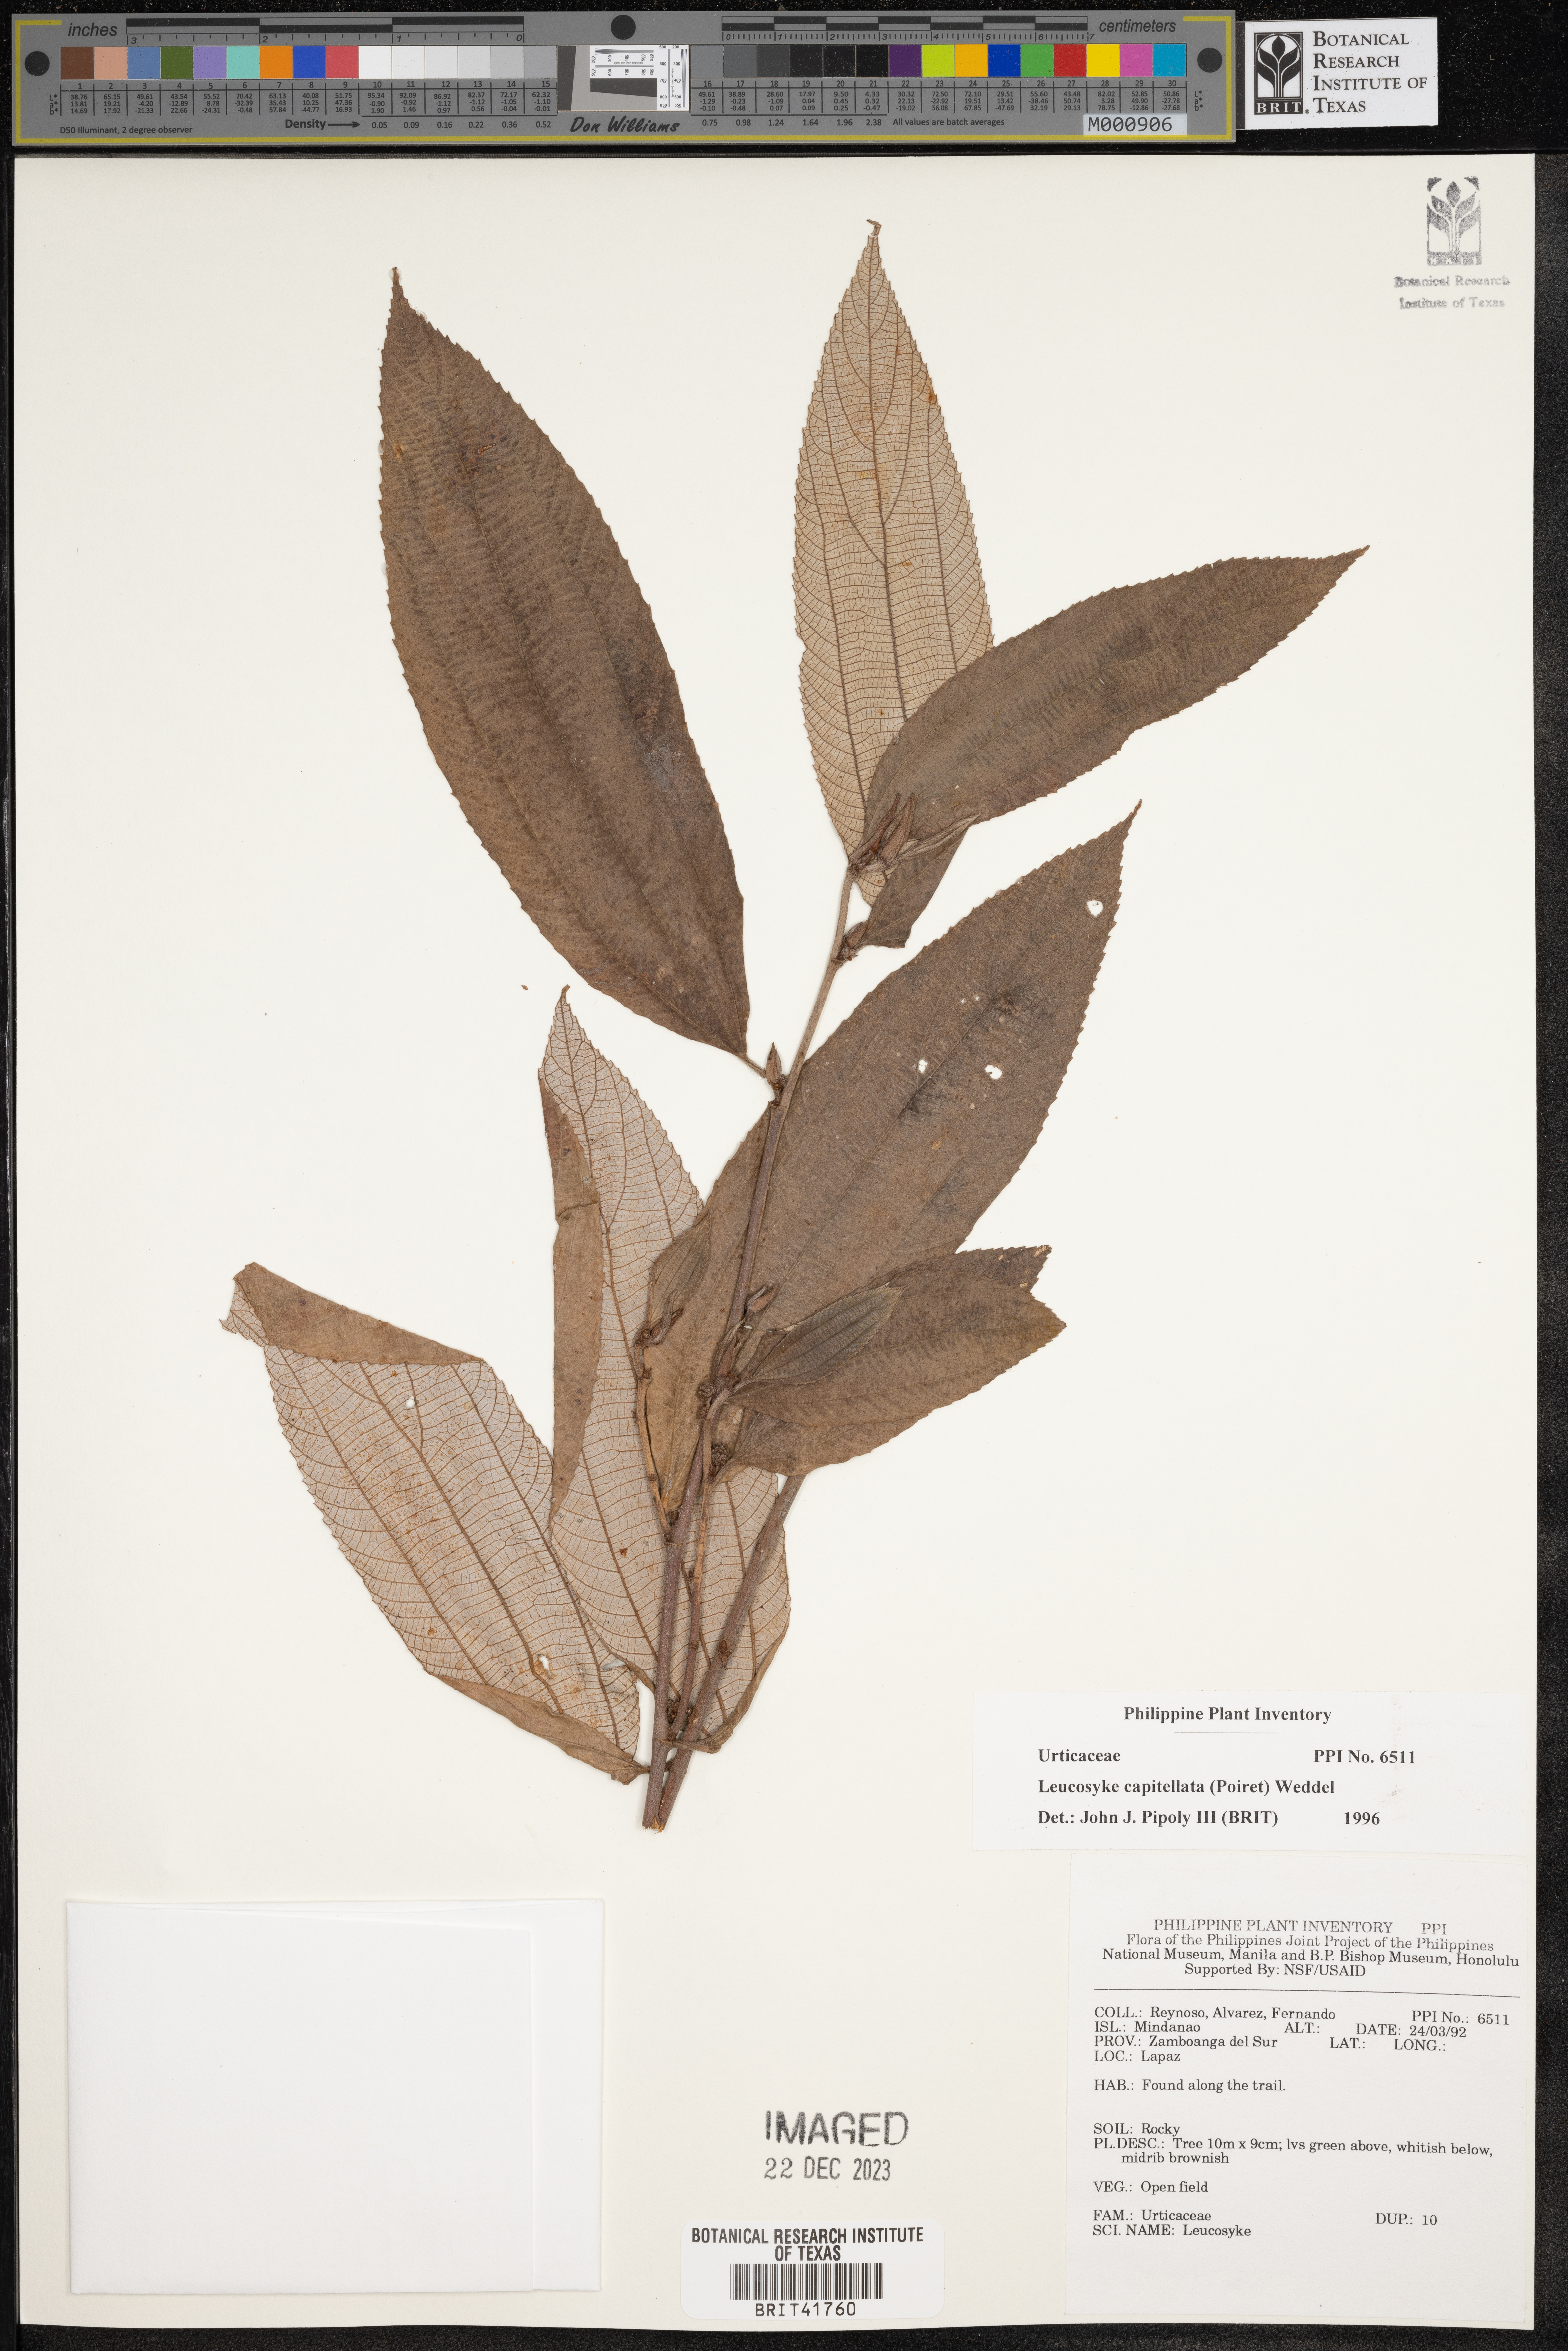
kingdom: Plantae
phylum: Tracheophyta
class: Magnoliopsida
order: Rosales
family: Urticaceae
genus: Leucosyke
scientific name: Leucosyke capitellata
